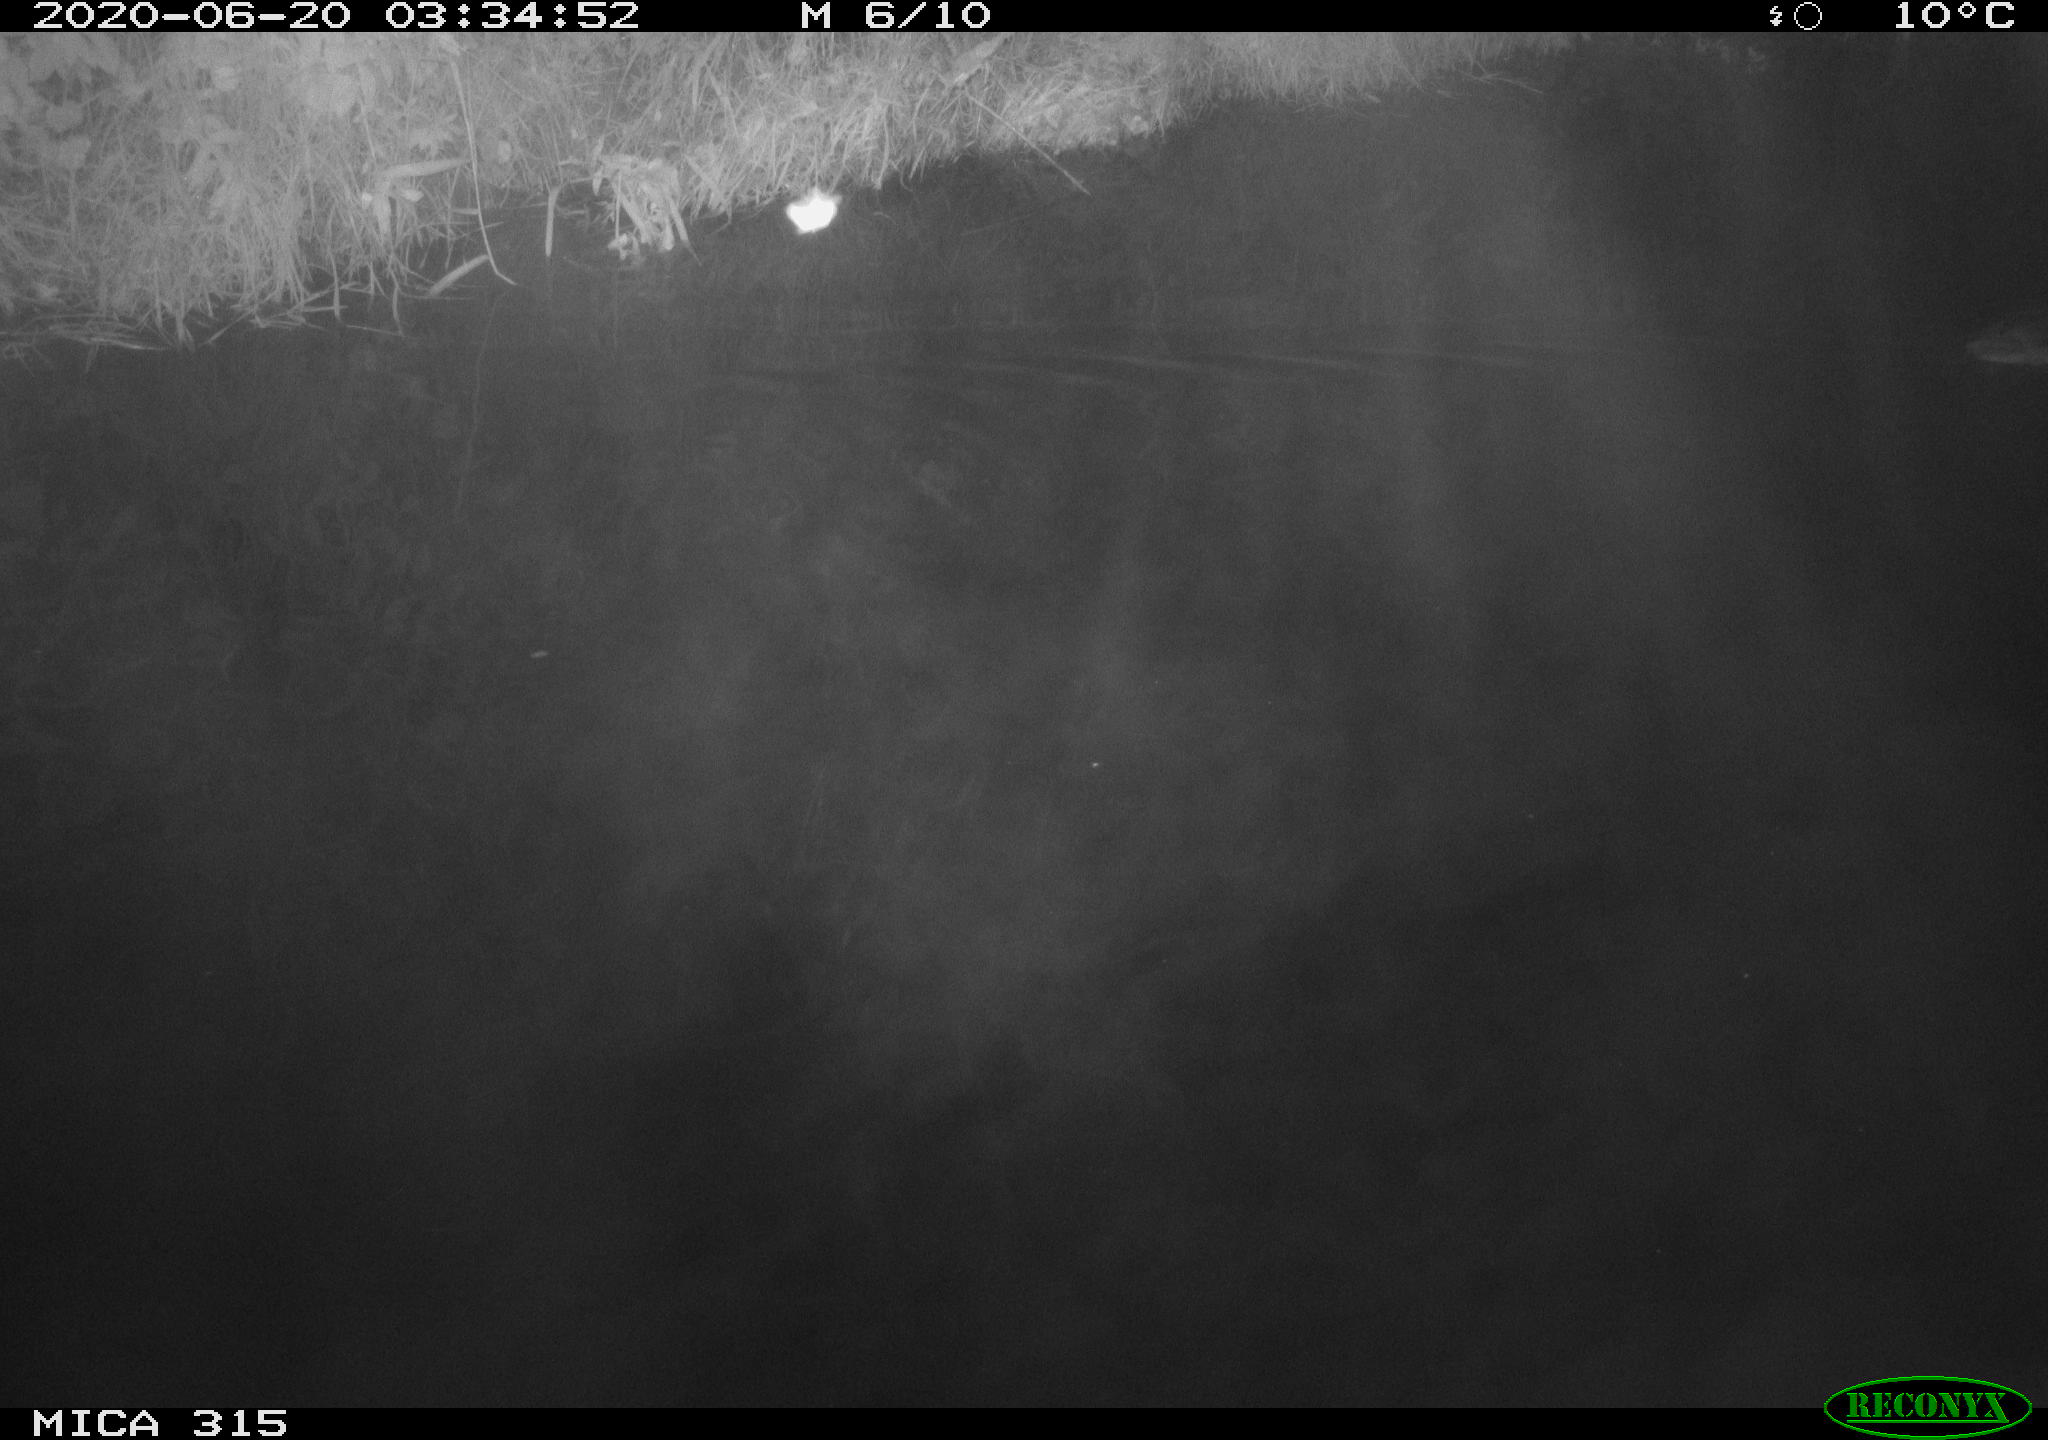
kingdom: Animalia
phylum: Chordata
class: Aves
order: Anseriformes
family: Anatidae
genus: Anas
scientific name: Anas platyrhynchos
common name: Mallard
